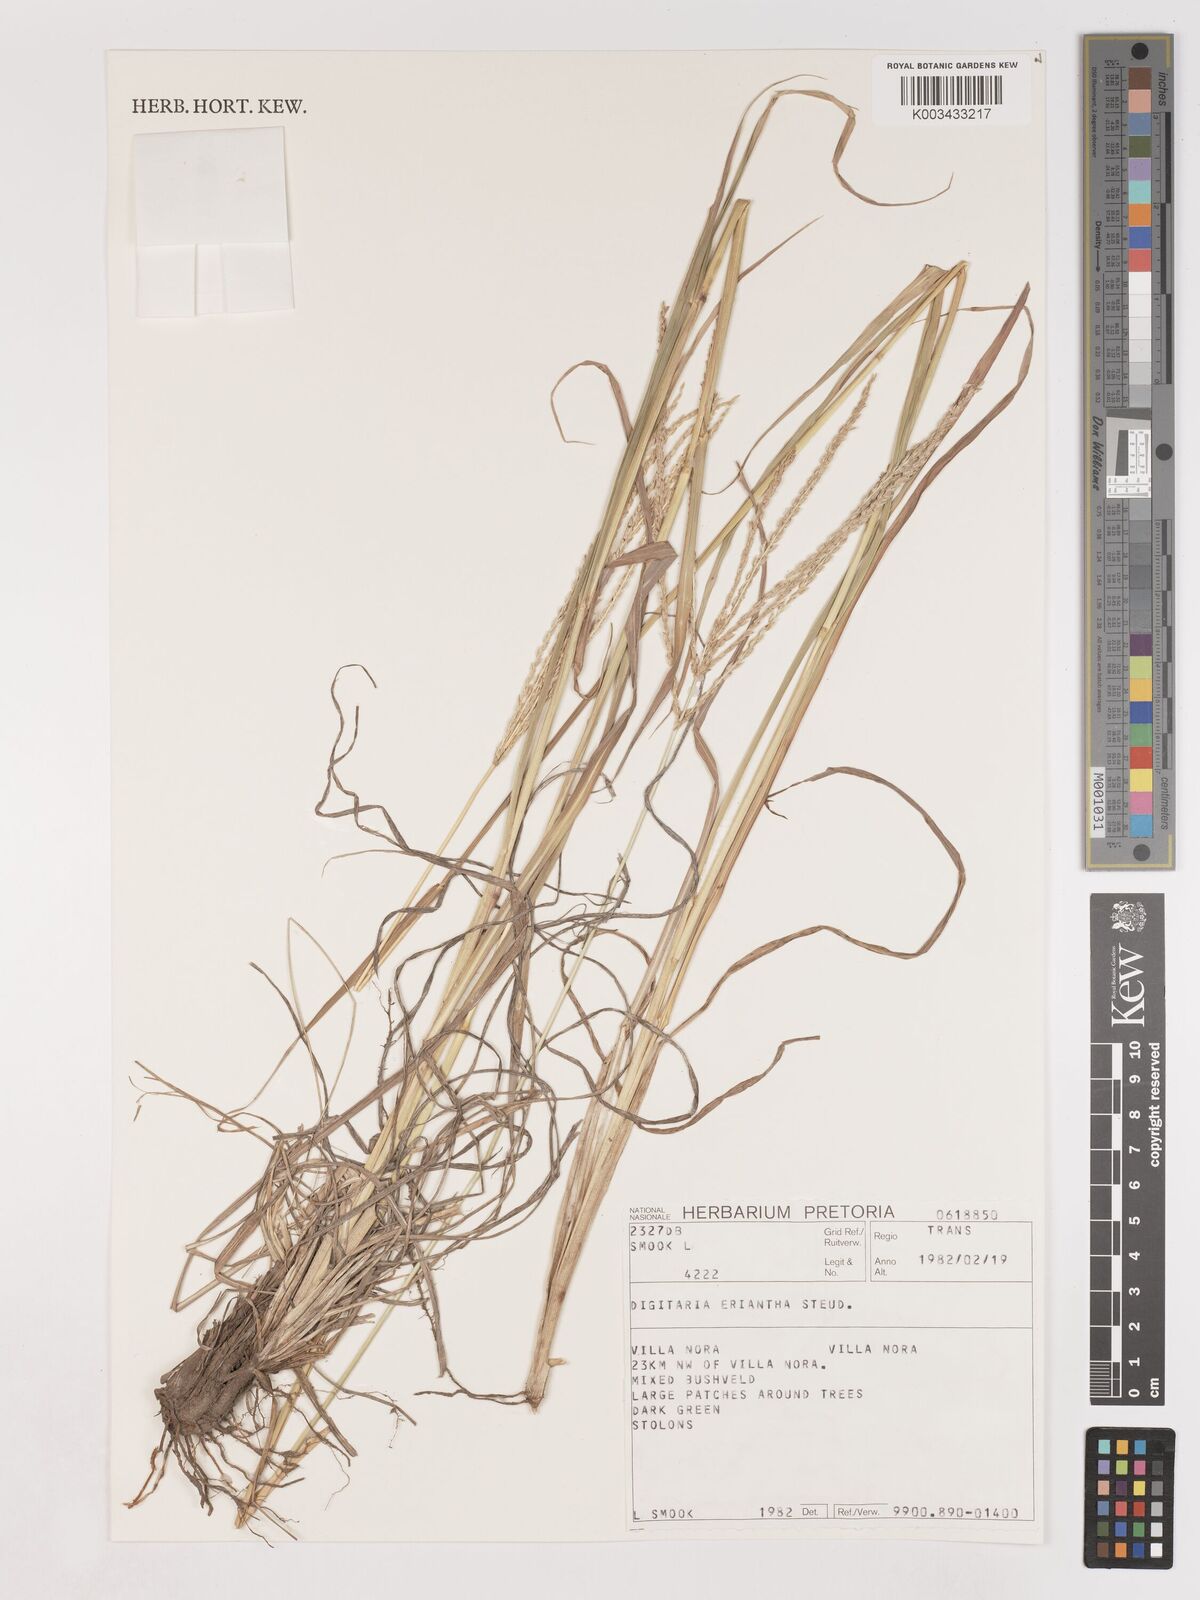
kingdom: Plantae
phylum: Tracheophyta
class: Liliopsida
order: Poales
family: Poaceae
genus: Digitaria
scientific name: Digitaria eriantha
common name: Digitgrass
